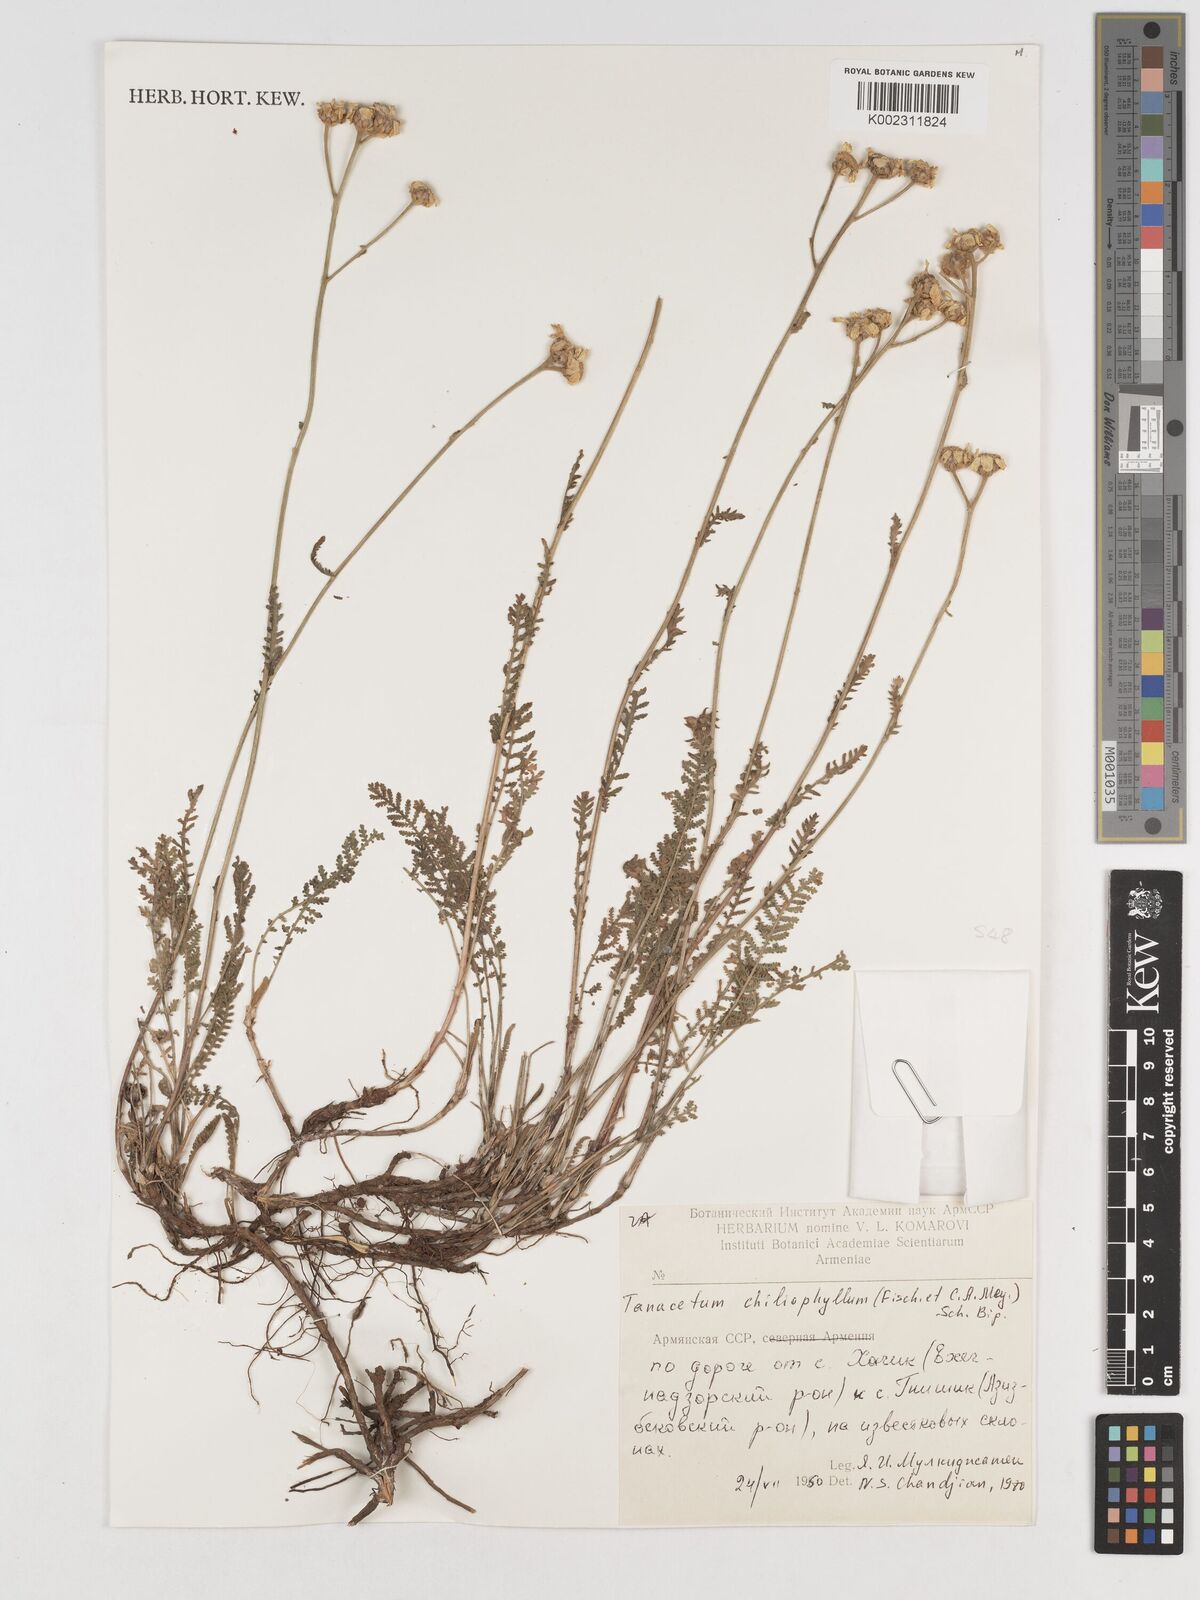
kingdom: Plantae
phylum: Tracheophyta
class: Magnoliopsida
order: Asterales
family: Asteraceae
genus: Tanacetum
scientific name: Tanacetum aureum
